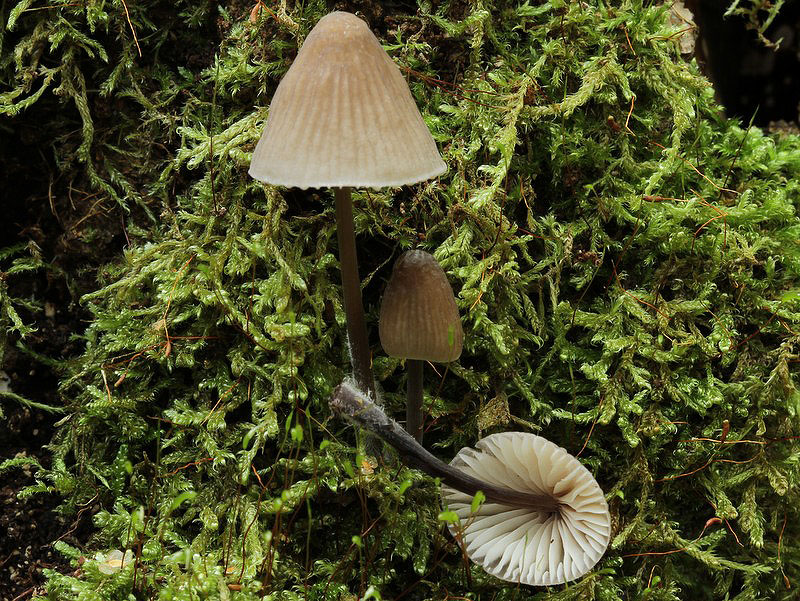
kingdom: Fungi
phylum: Basidiomycota
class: Agaricomycetes
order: Agaricales
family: Mycenaceae
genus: Mycena
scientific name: Mycena leptocephala
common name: klor-huesvamp
